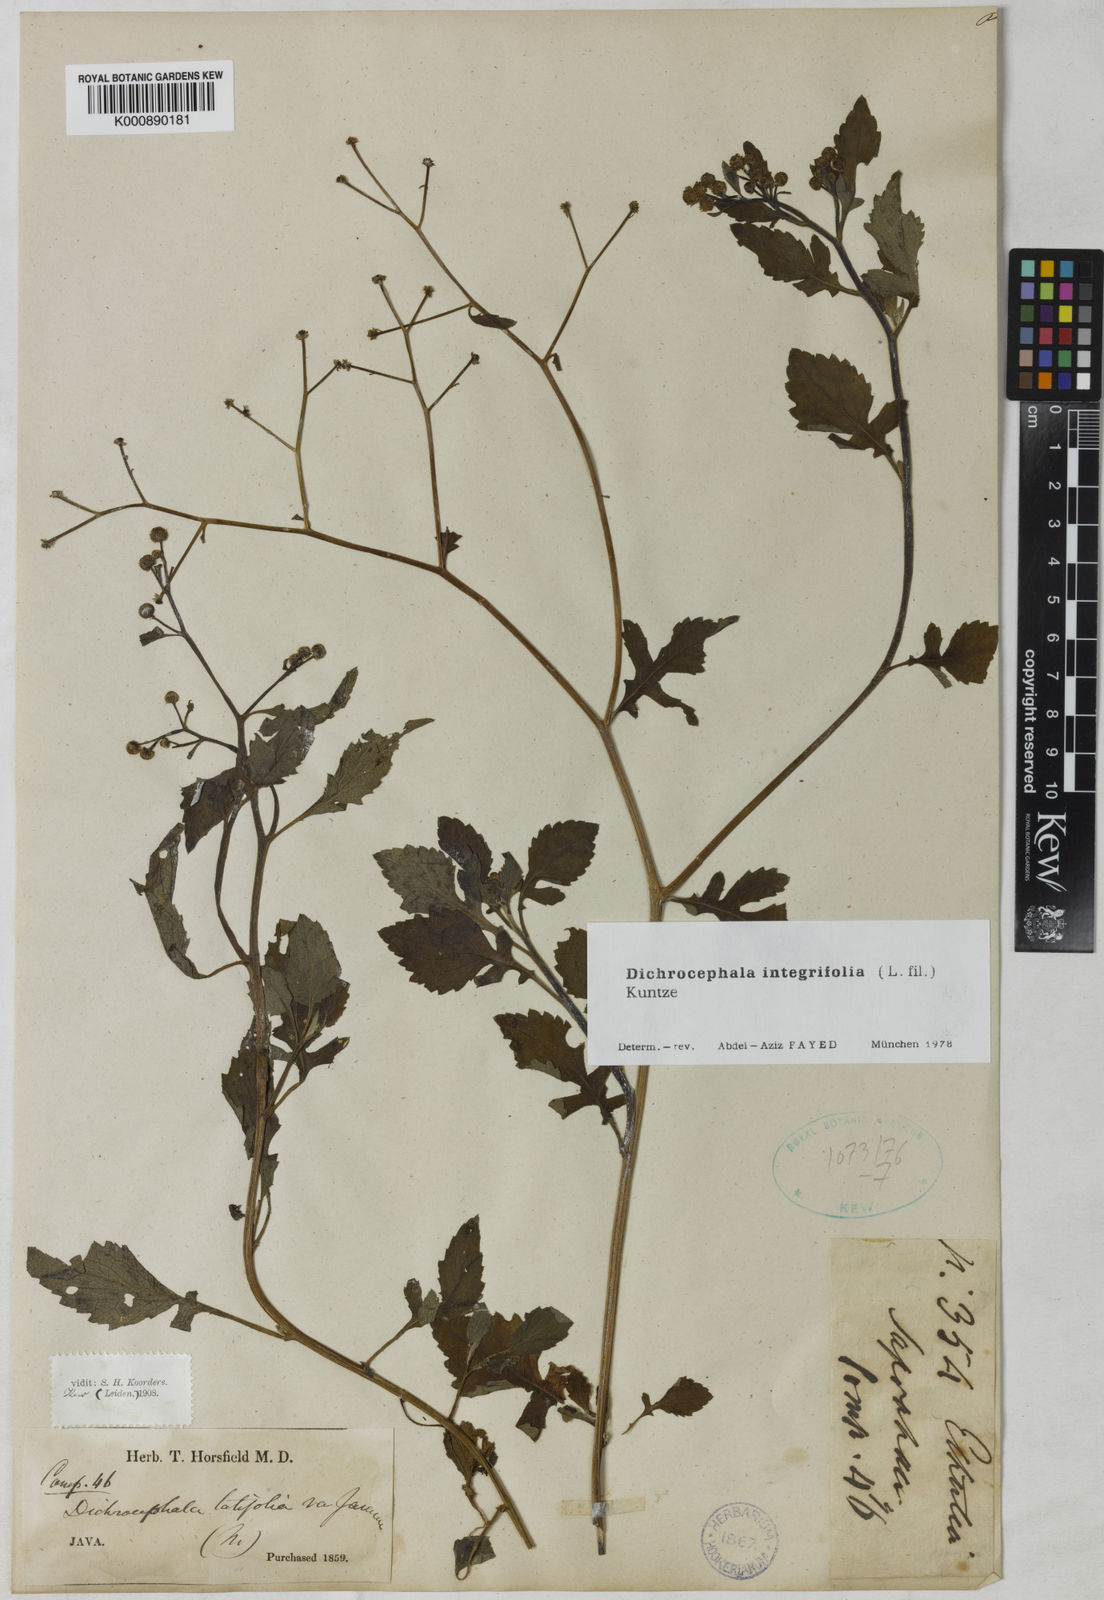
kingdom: Plantae
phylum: Tracheophyta
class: Magnoliopsida
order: Asterales
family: Asteraceae
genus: Dichrocephala
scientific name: Dichrocephala integrifolia
